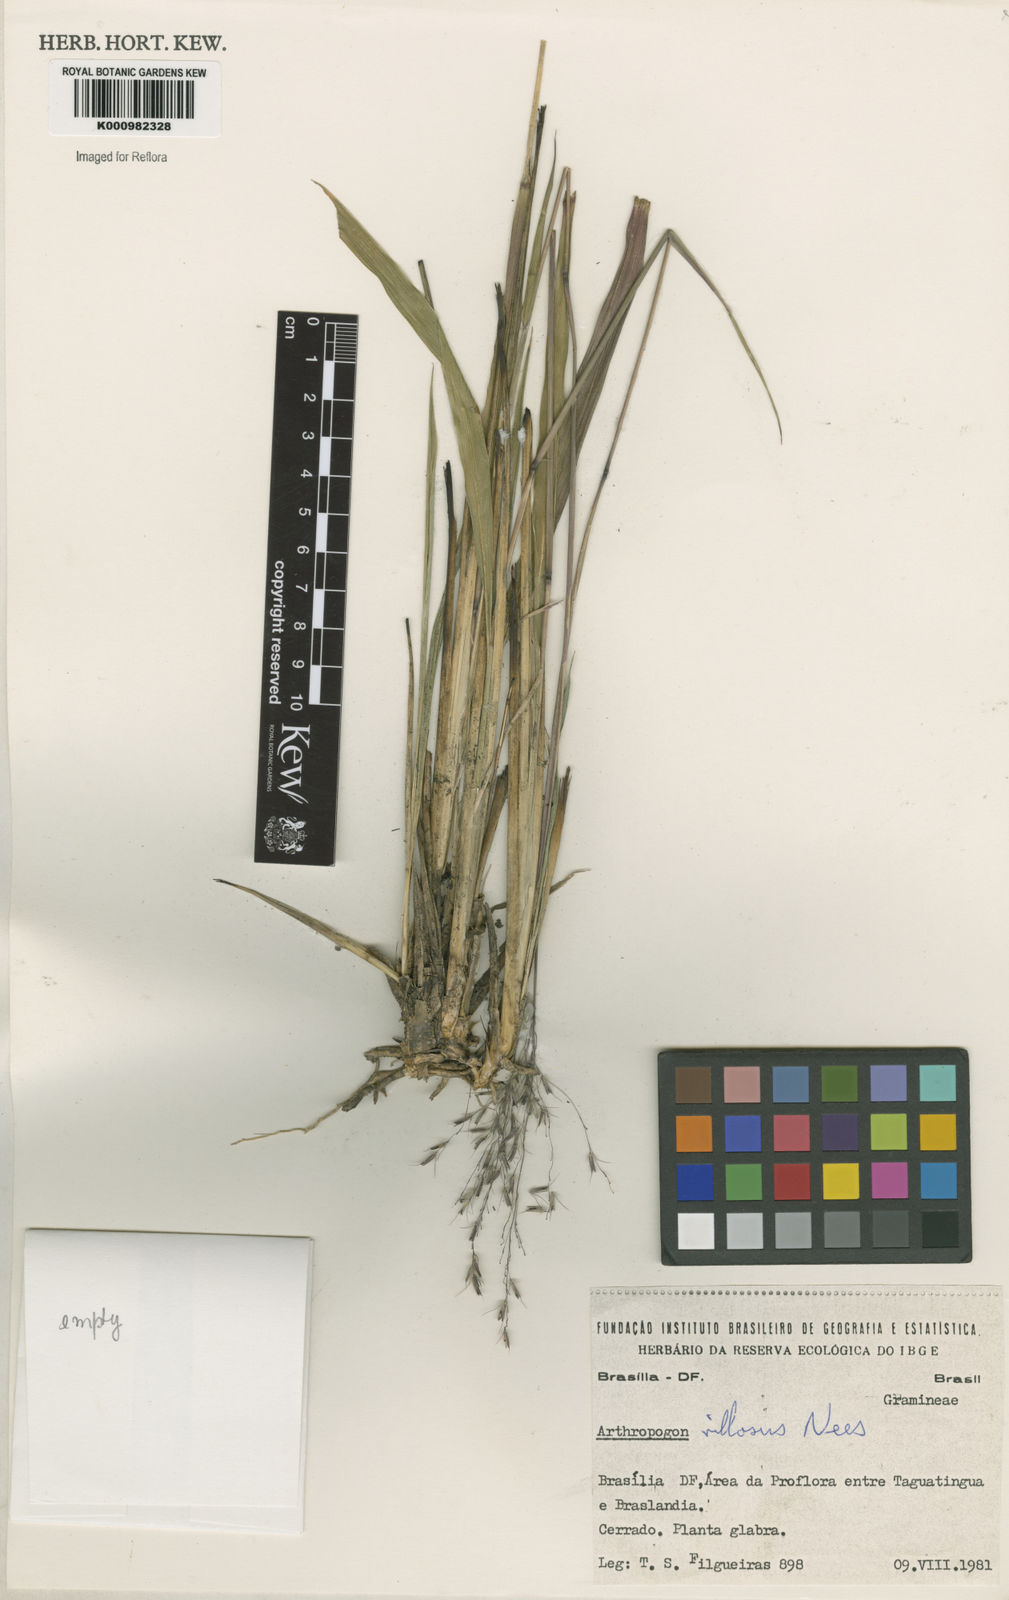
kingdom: Plantae
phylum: Tracheophyta
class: Liliopsida
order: Poales
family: Poaceae
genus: Arthropogon
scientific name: Arthropogon villosus
